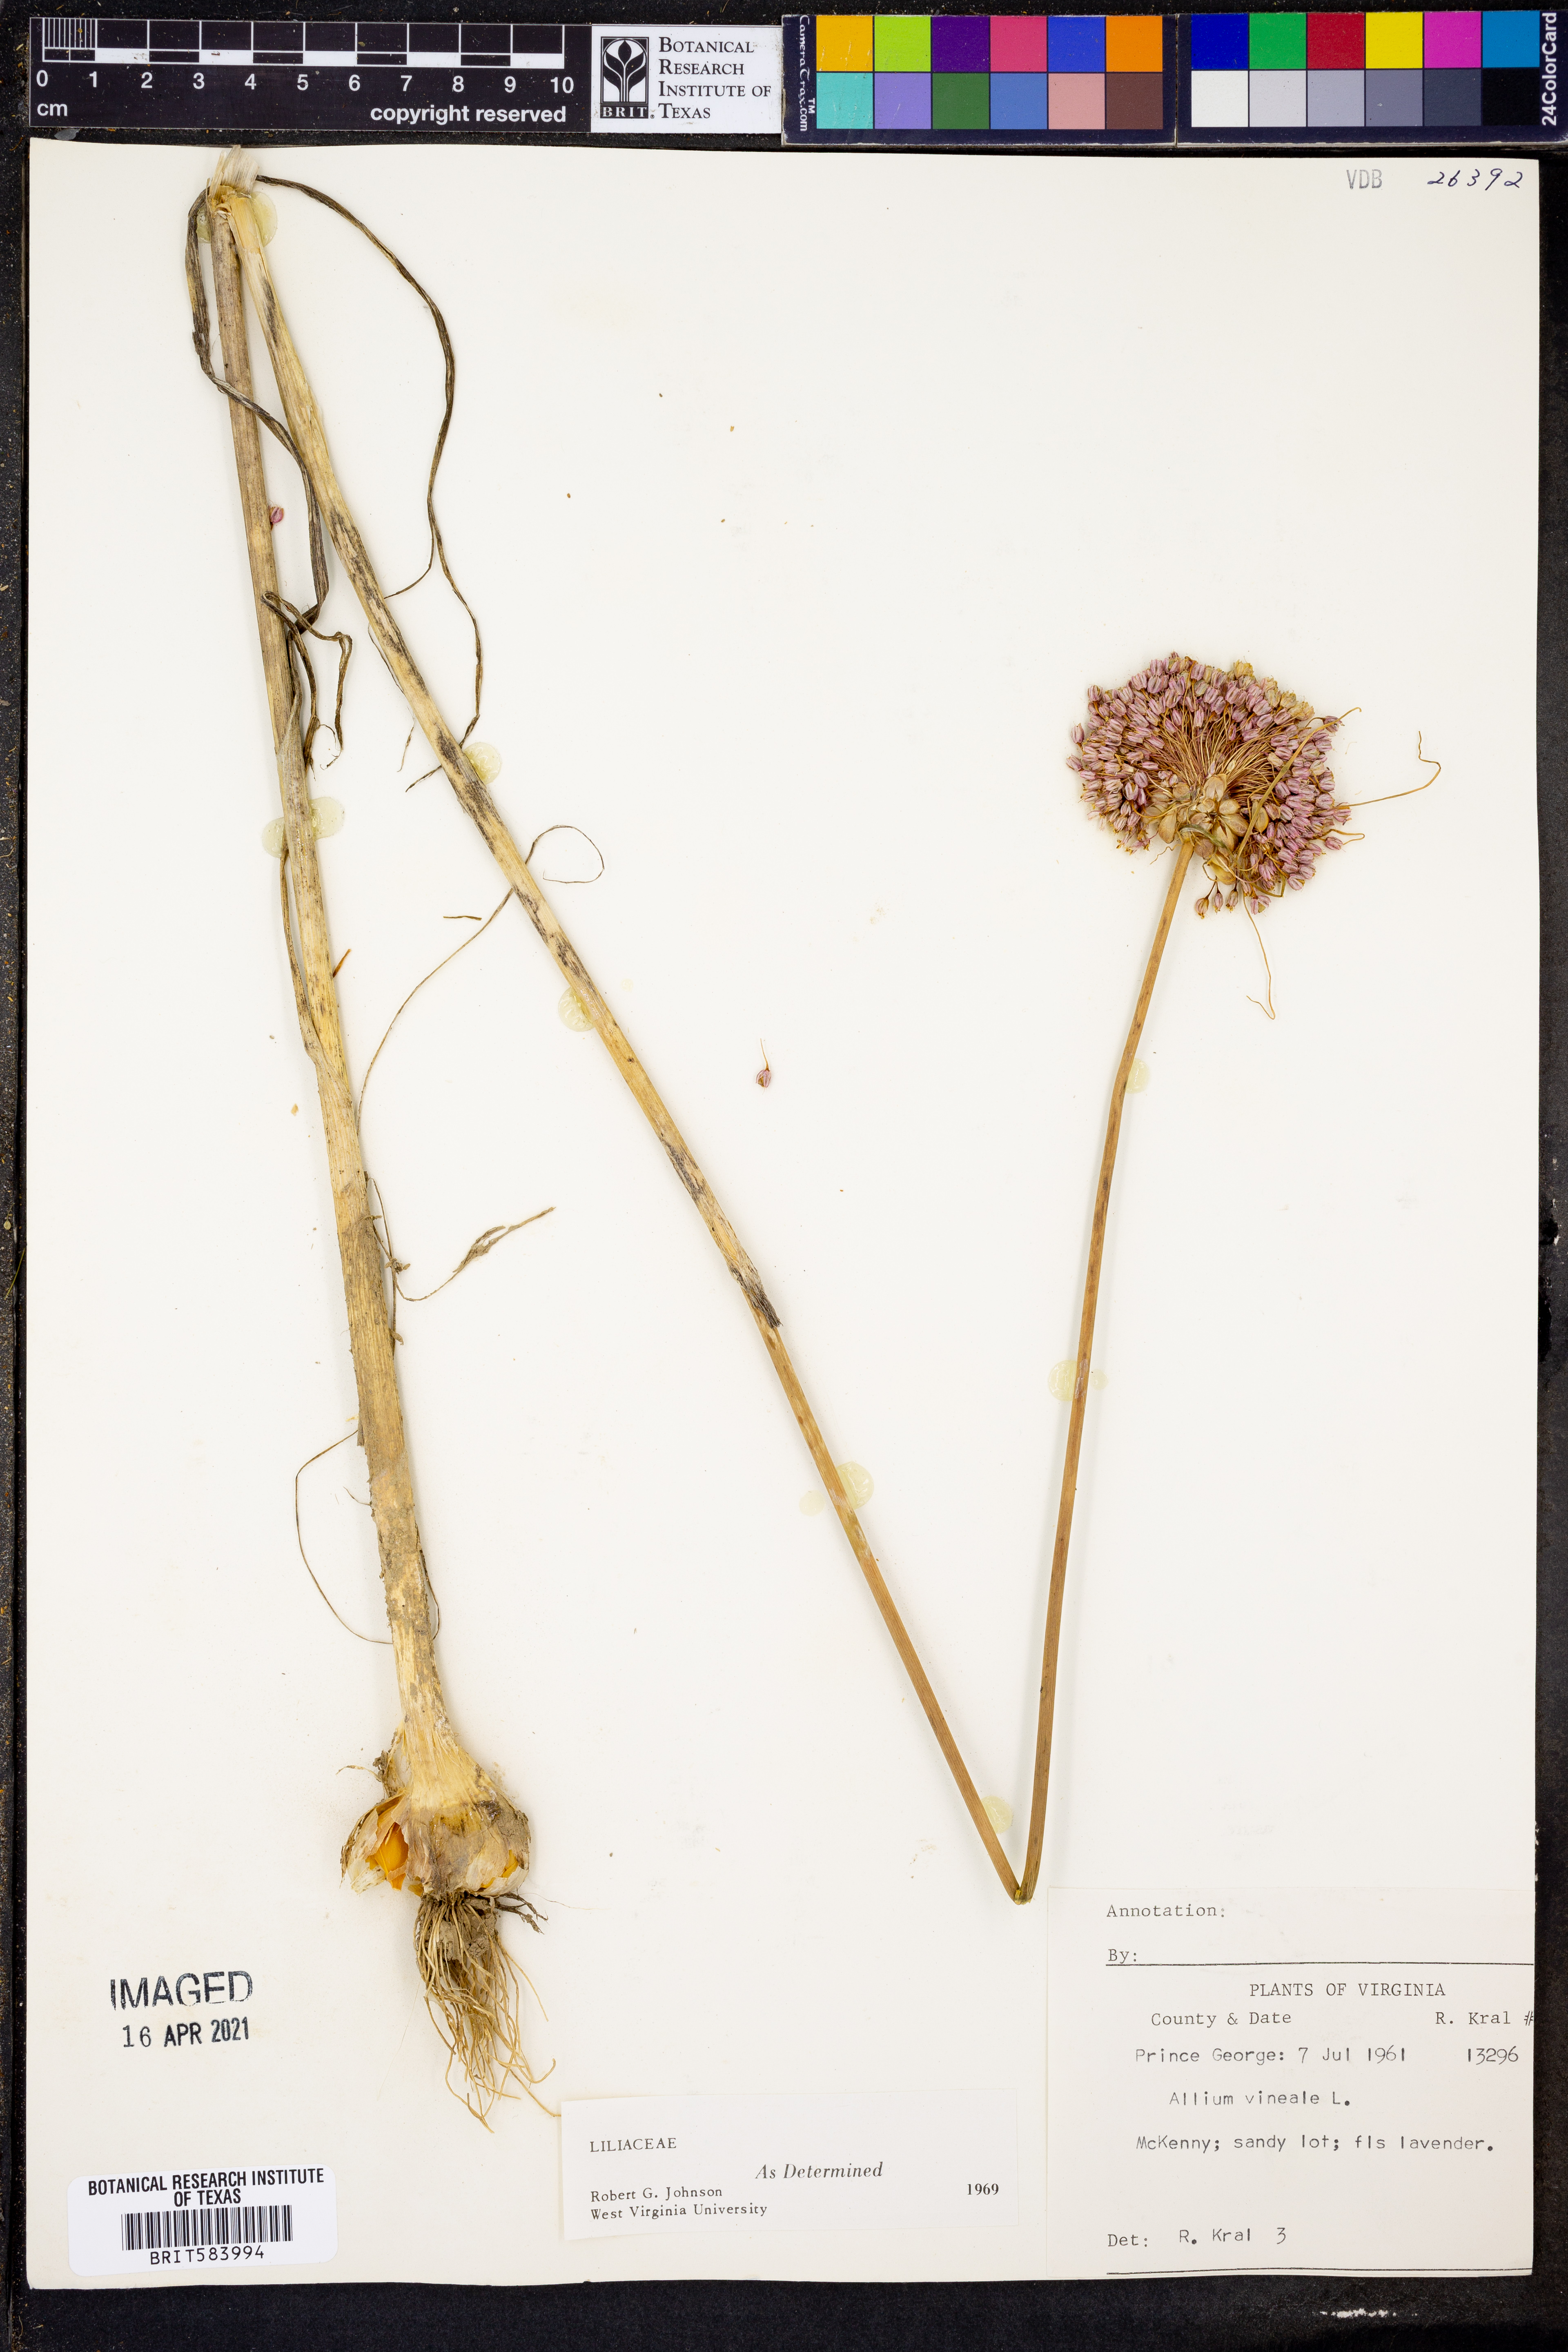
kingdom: Plantae
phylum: Tracheophyta
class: Liliopsida
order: Asparagales
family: Amaryllidaceae
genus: Allium
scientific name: Allium vineale
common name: Crow garlic
